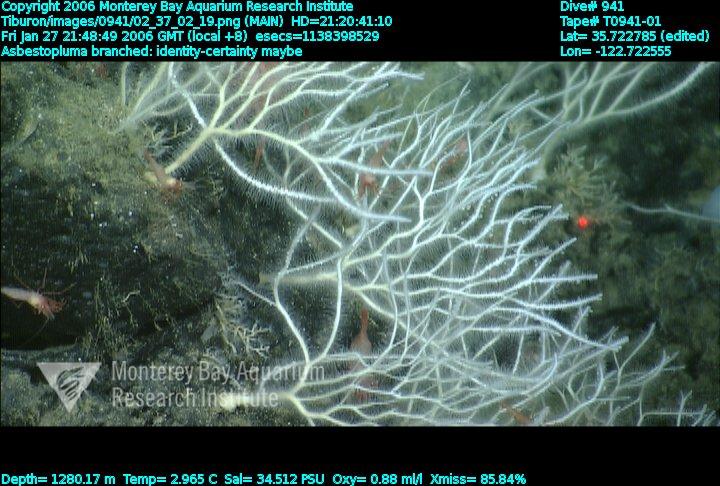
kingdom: Animalia
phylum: Porifera
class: Demospongiae
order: Poecilosclerida
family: Cladorhizidae
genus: Asbestopluma
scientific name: Asbestopluma monticola
